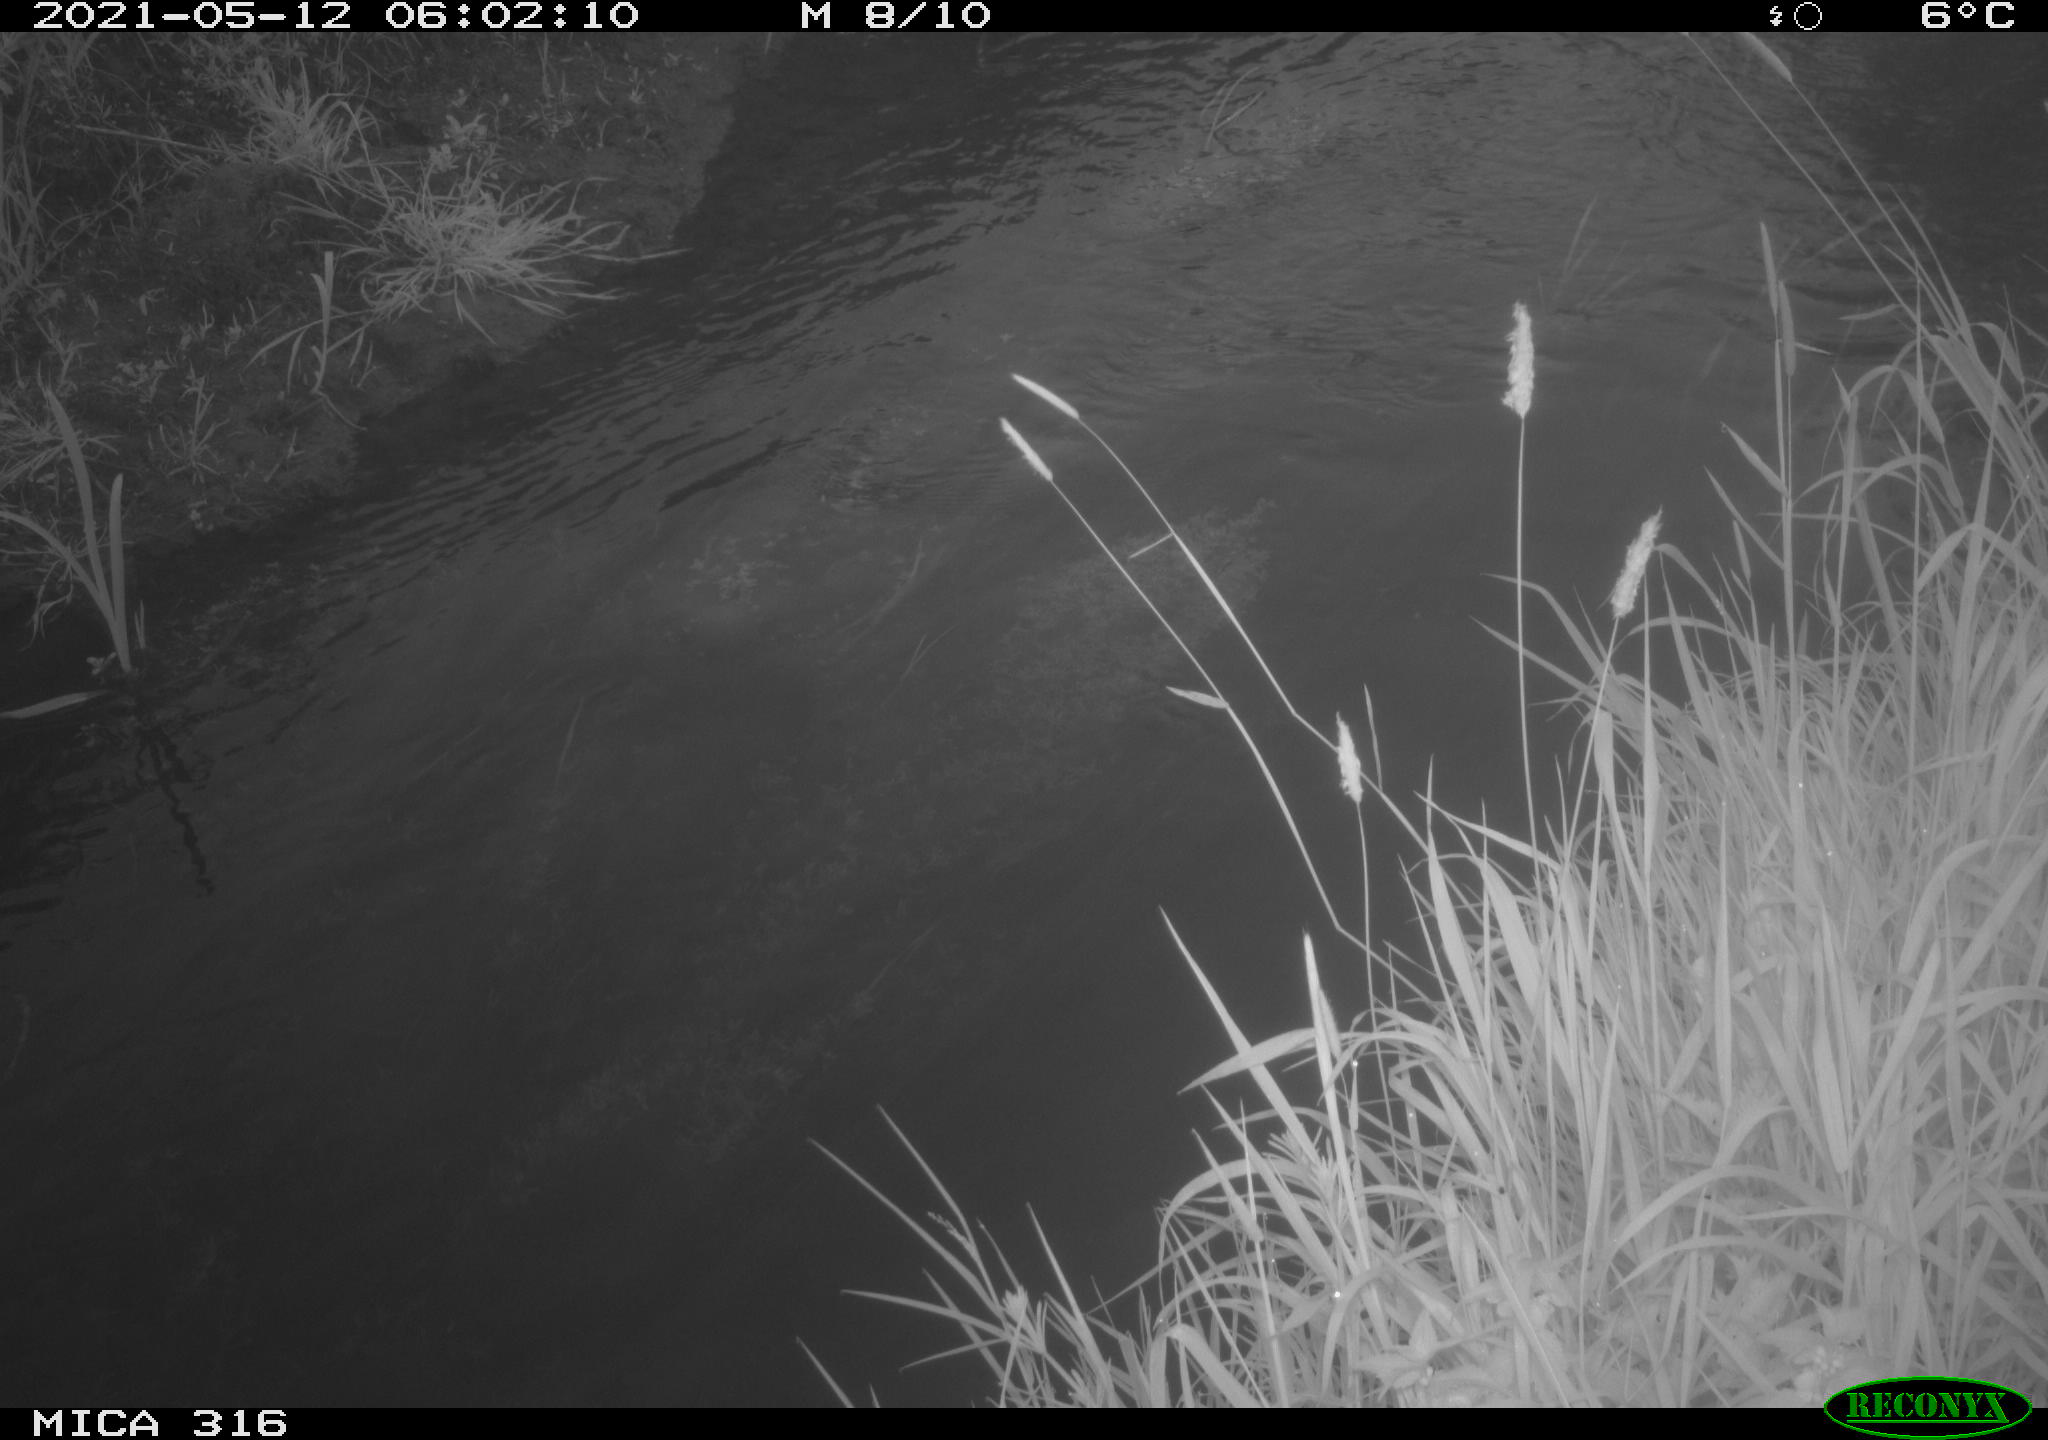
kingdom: Animalia
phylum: Chordata
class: Aves
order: Anseriformes
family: Anatidae
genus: Anas
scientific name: Anas platyrhynchos
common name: Mallard
